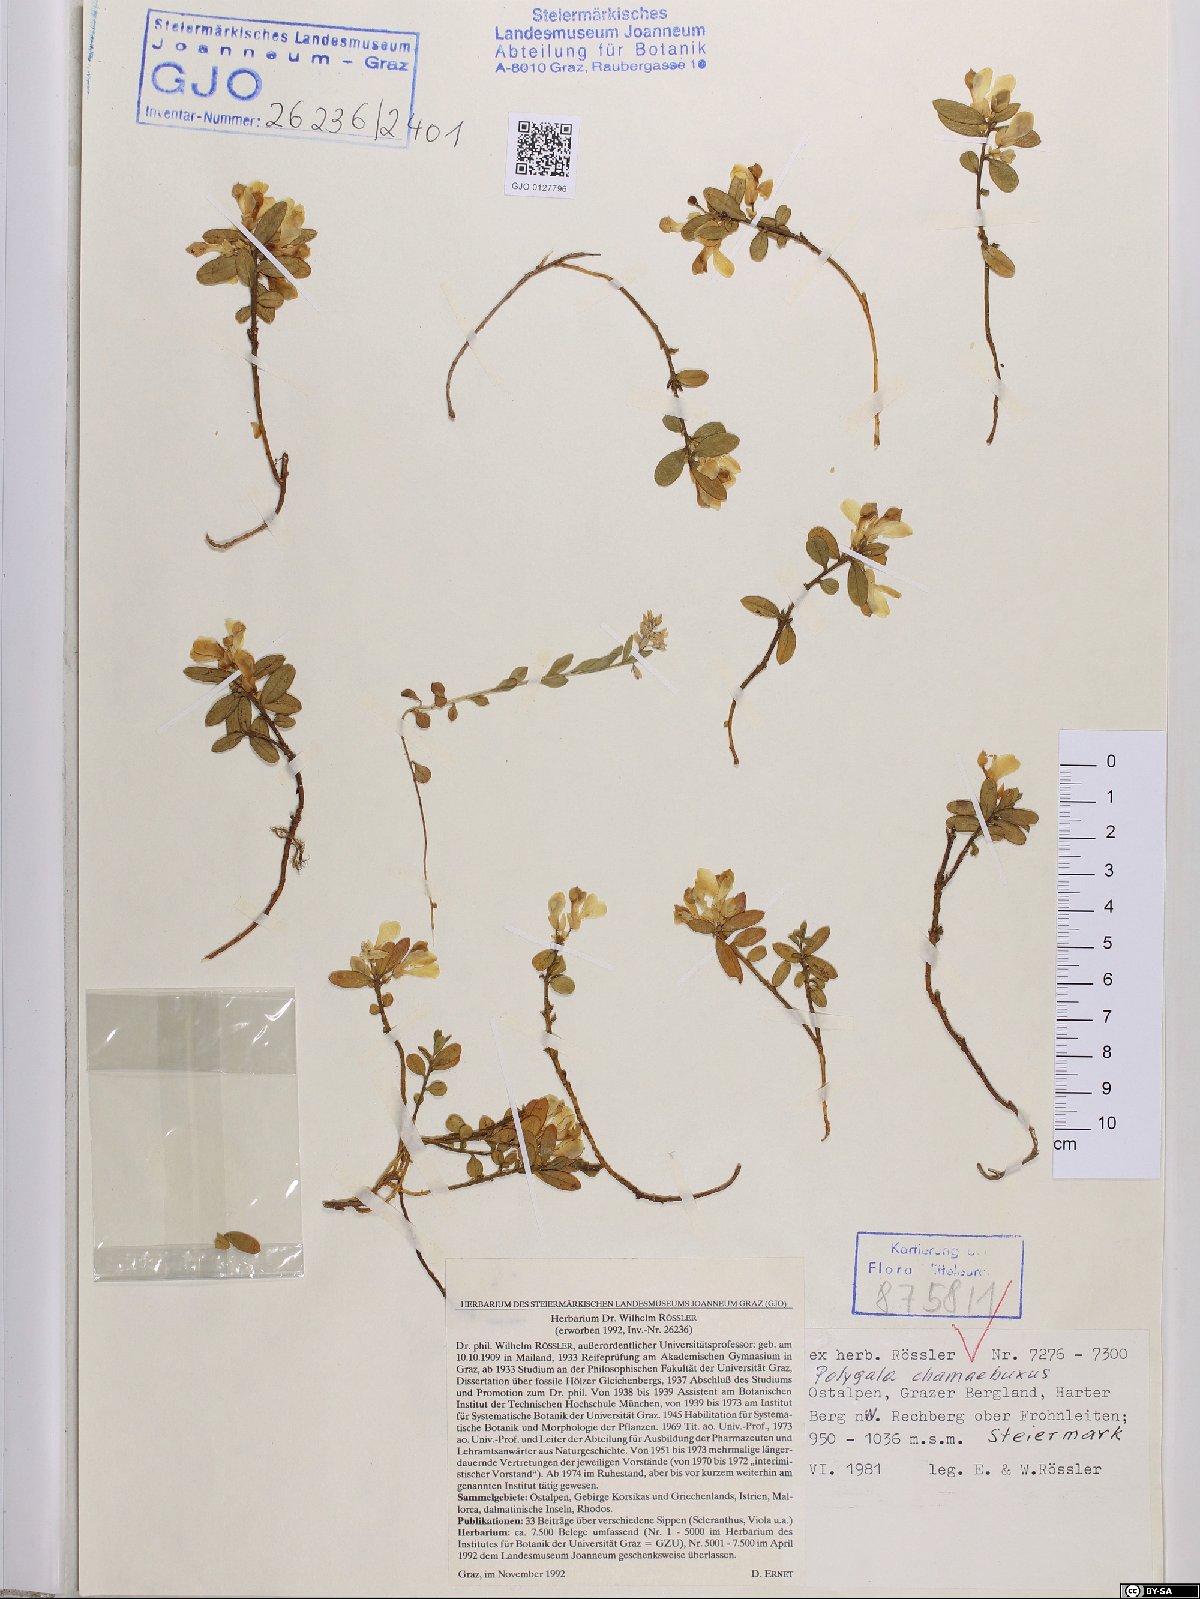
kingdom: Plantae
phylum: Tracheophyta
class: Magnoliopsida
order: Fabales
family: Polygalaceae
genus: Polygaloides
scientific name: Polygaloides chamaebuxus
